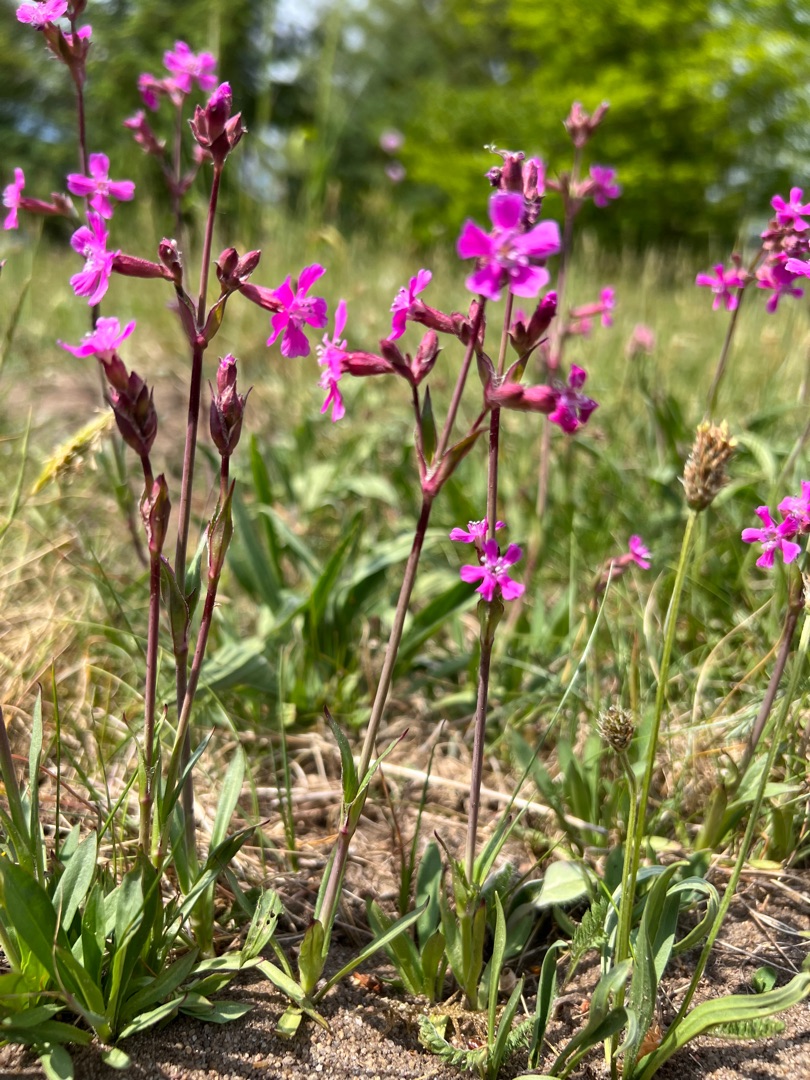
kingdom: Plantae
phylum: Tracheophyta
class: Magnoliopsida
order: Caryophyllales
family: Caryophyllaceae
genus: Viscaria
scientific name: Viscaria vulgaris
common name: Tjærenellike
